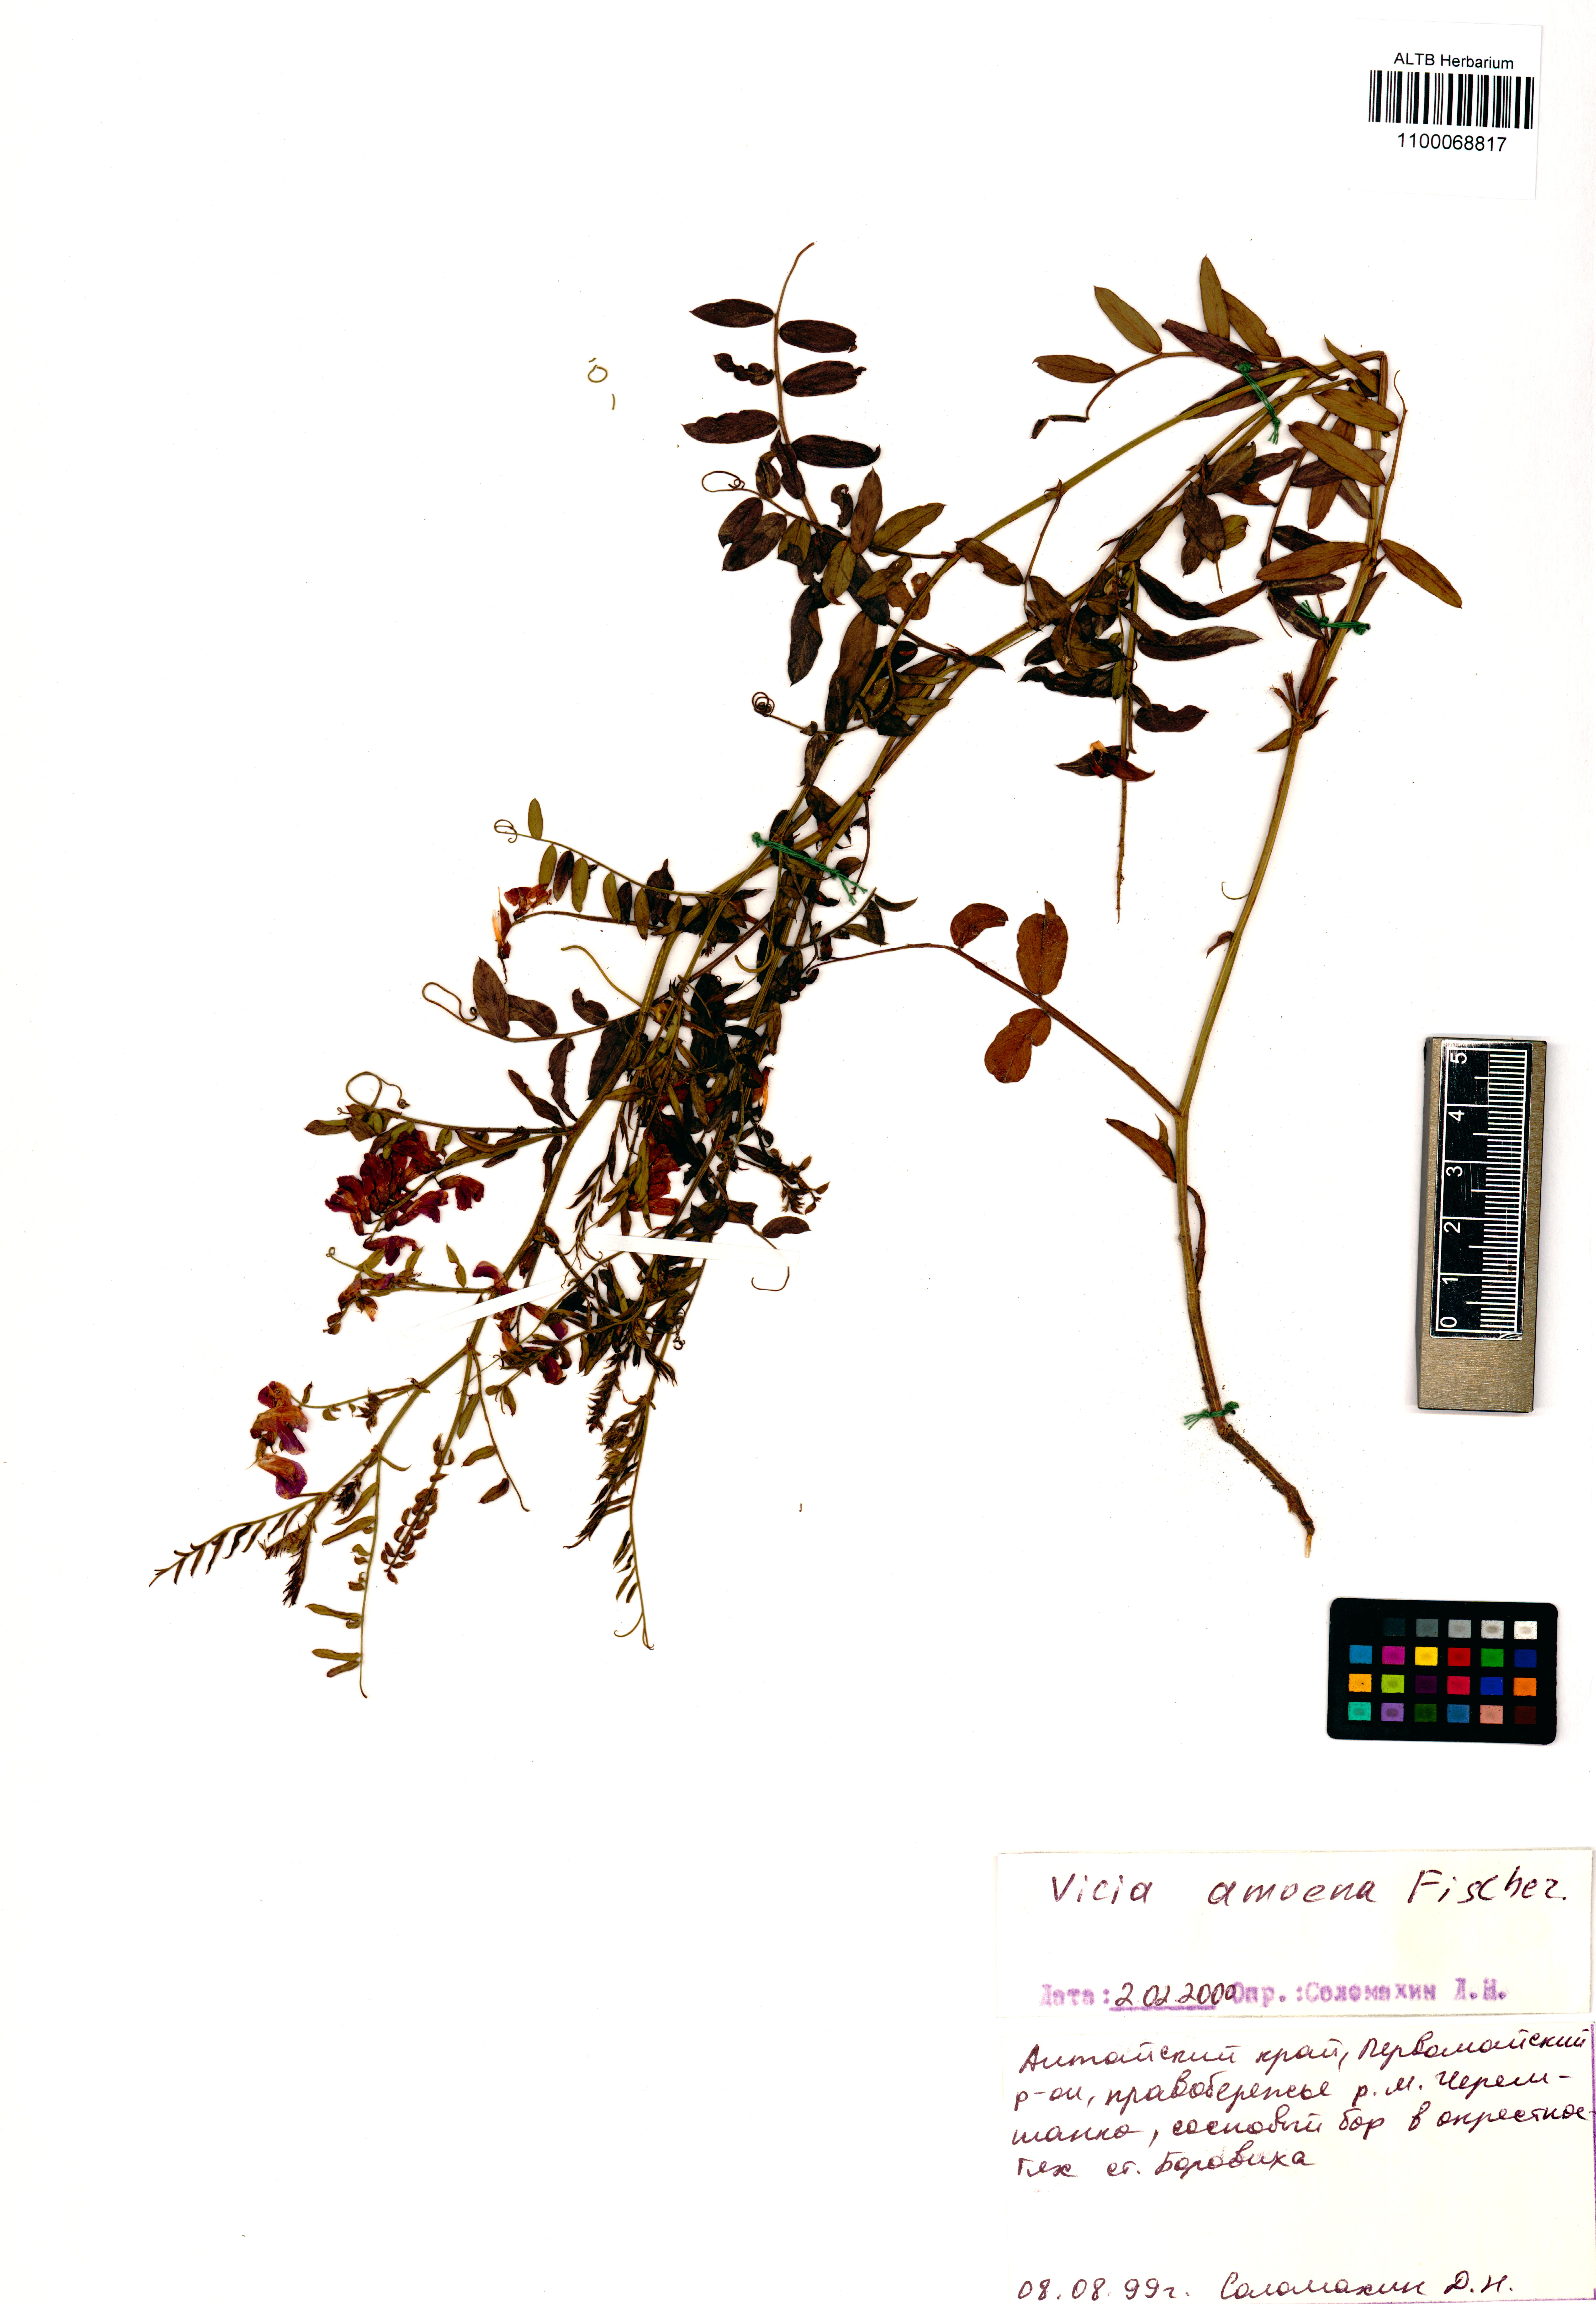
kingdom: Plantae
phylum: Tracheophyta
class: Magnoliopsida
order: Fabales
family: Fabaceae
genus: Vicia
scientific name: Vicia amoena
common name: Cheder ebs
